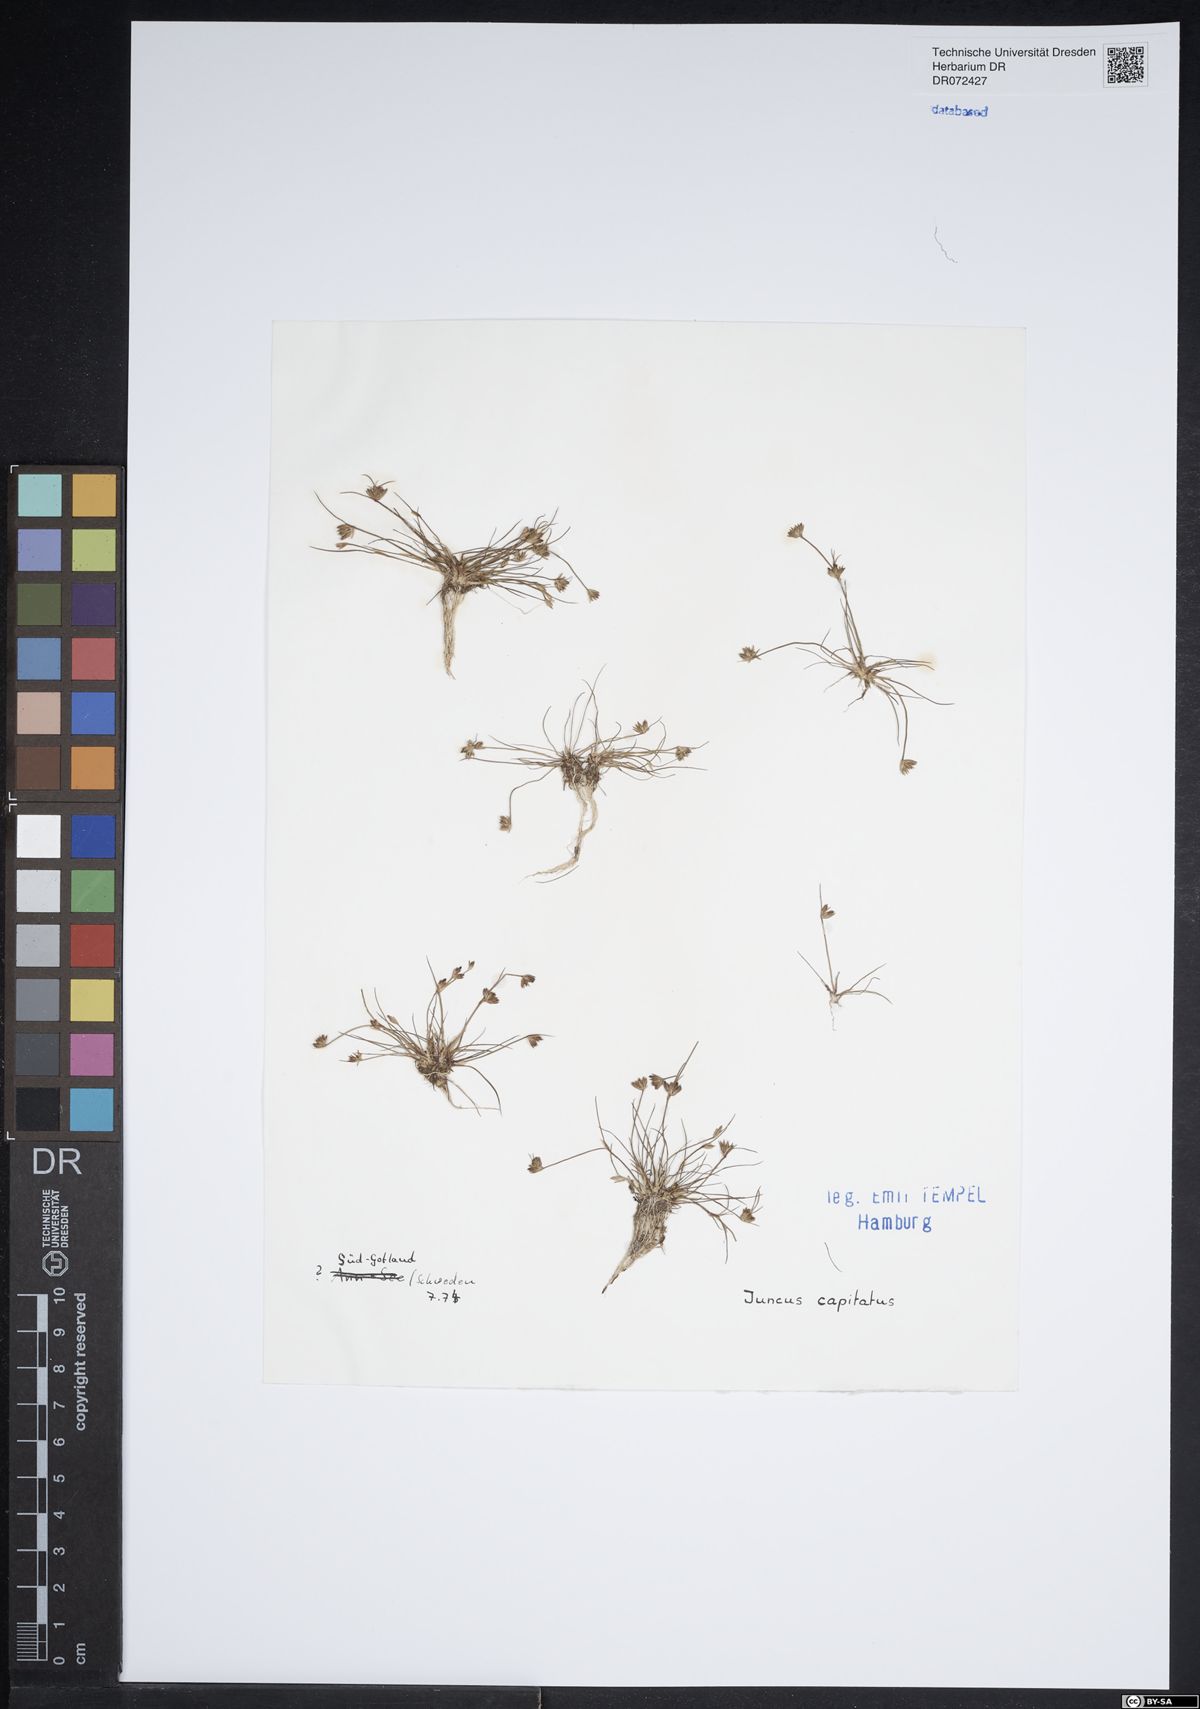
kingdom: Plantae
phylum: Tracheophyta
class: Liliopsida
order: Poales
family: Juncaceae
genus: Juncus
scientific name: Juncus capitatus
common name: Dwarf rush
